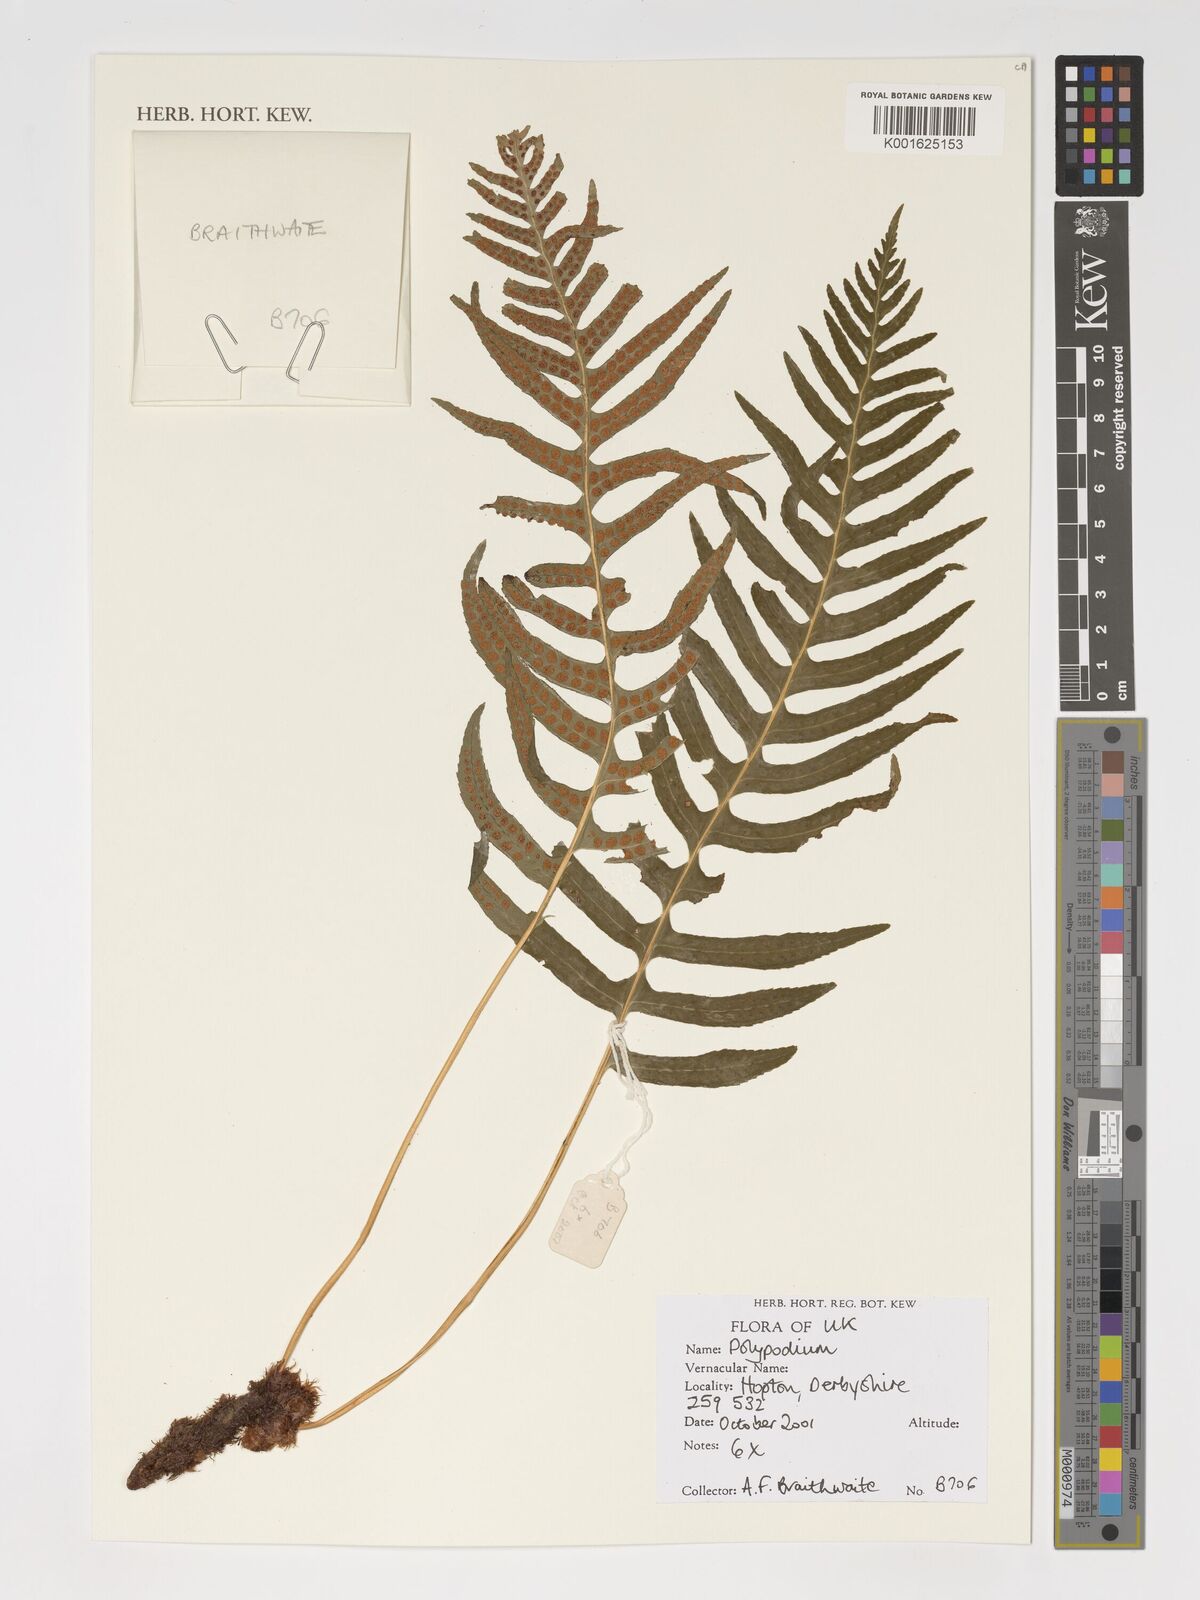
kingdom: Plantae
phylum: Tracheophyta
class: Polypodiopsida
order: Polypodiales
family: Polypodiaceae
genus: Polypodium
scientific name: Polypodium
